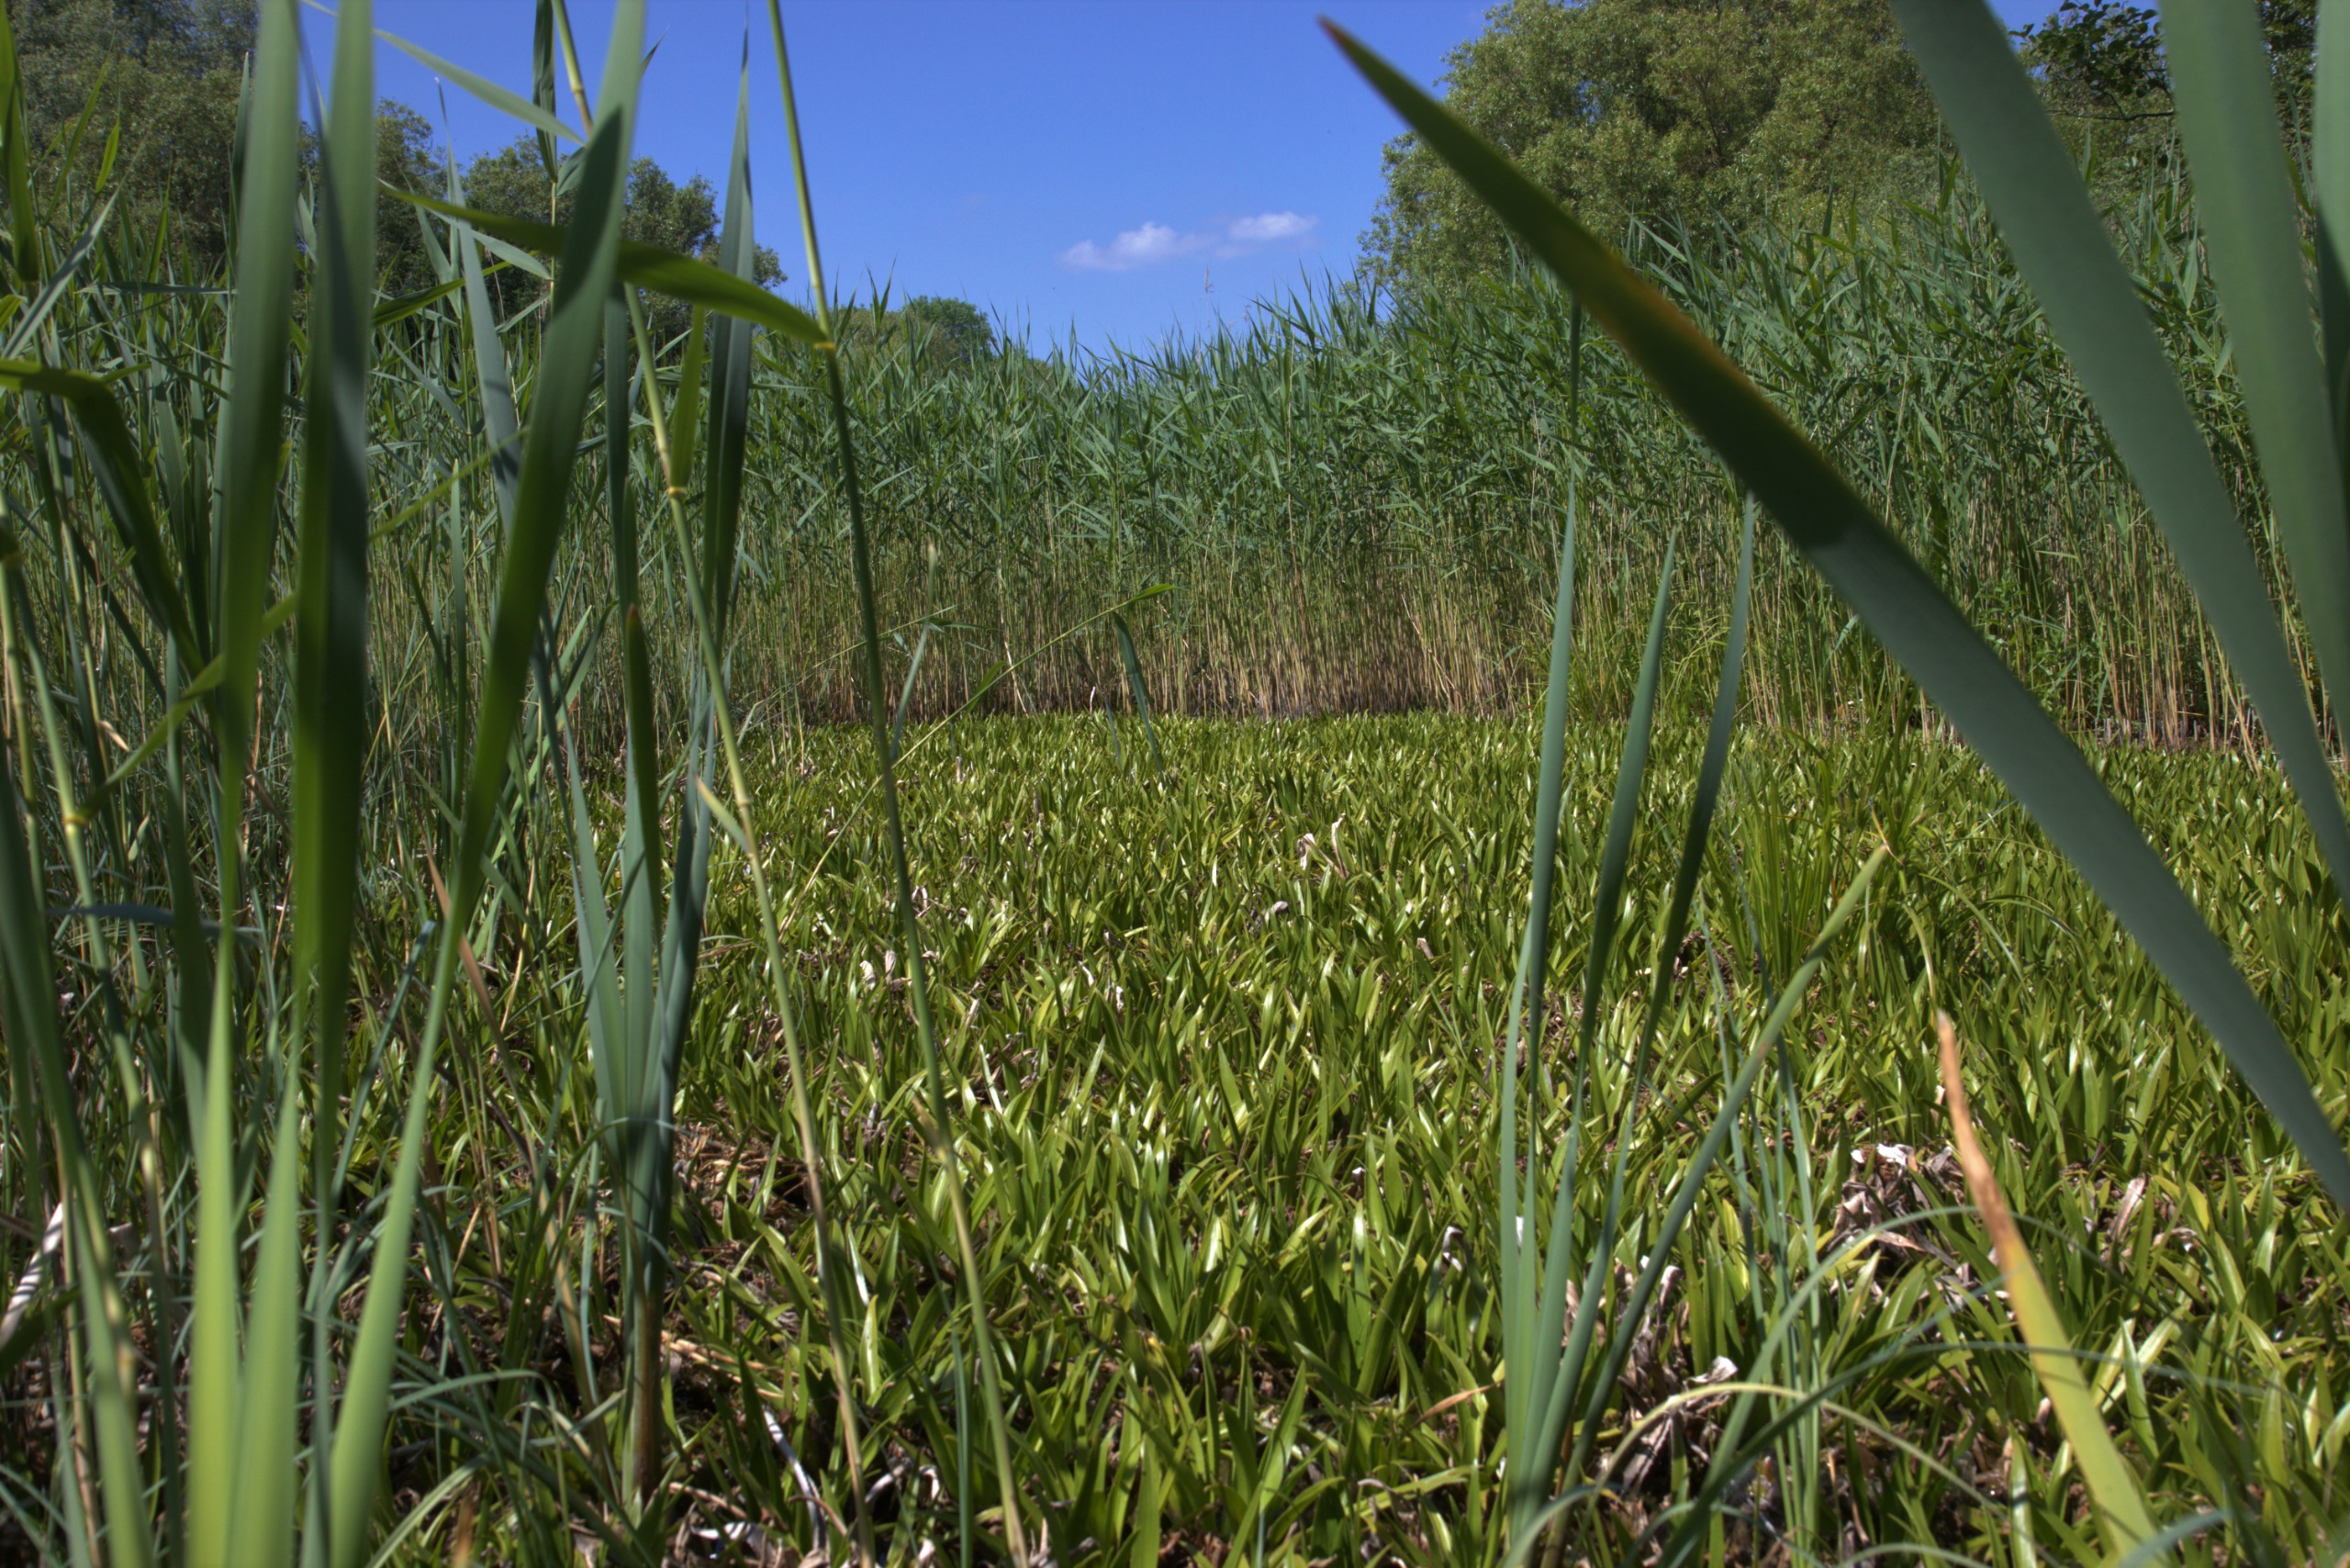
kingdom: Plantae
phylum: Tracheophyta
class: Liliopsida
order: Alismatales
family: Hydrocharitaceae
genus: Stratiotes
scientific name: Stratiotes aloides
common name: Krebseklo
